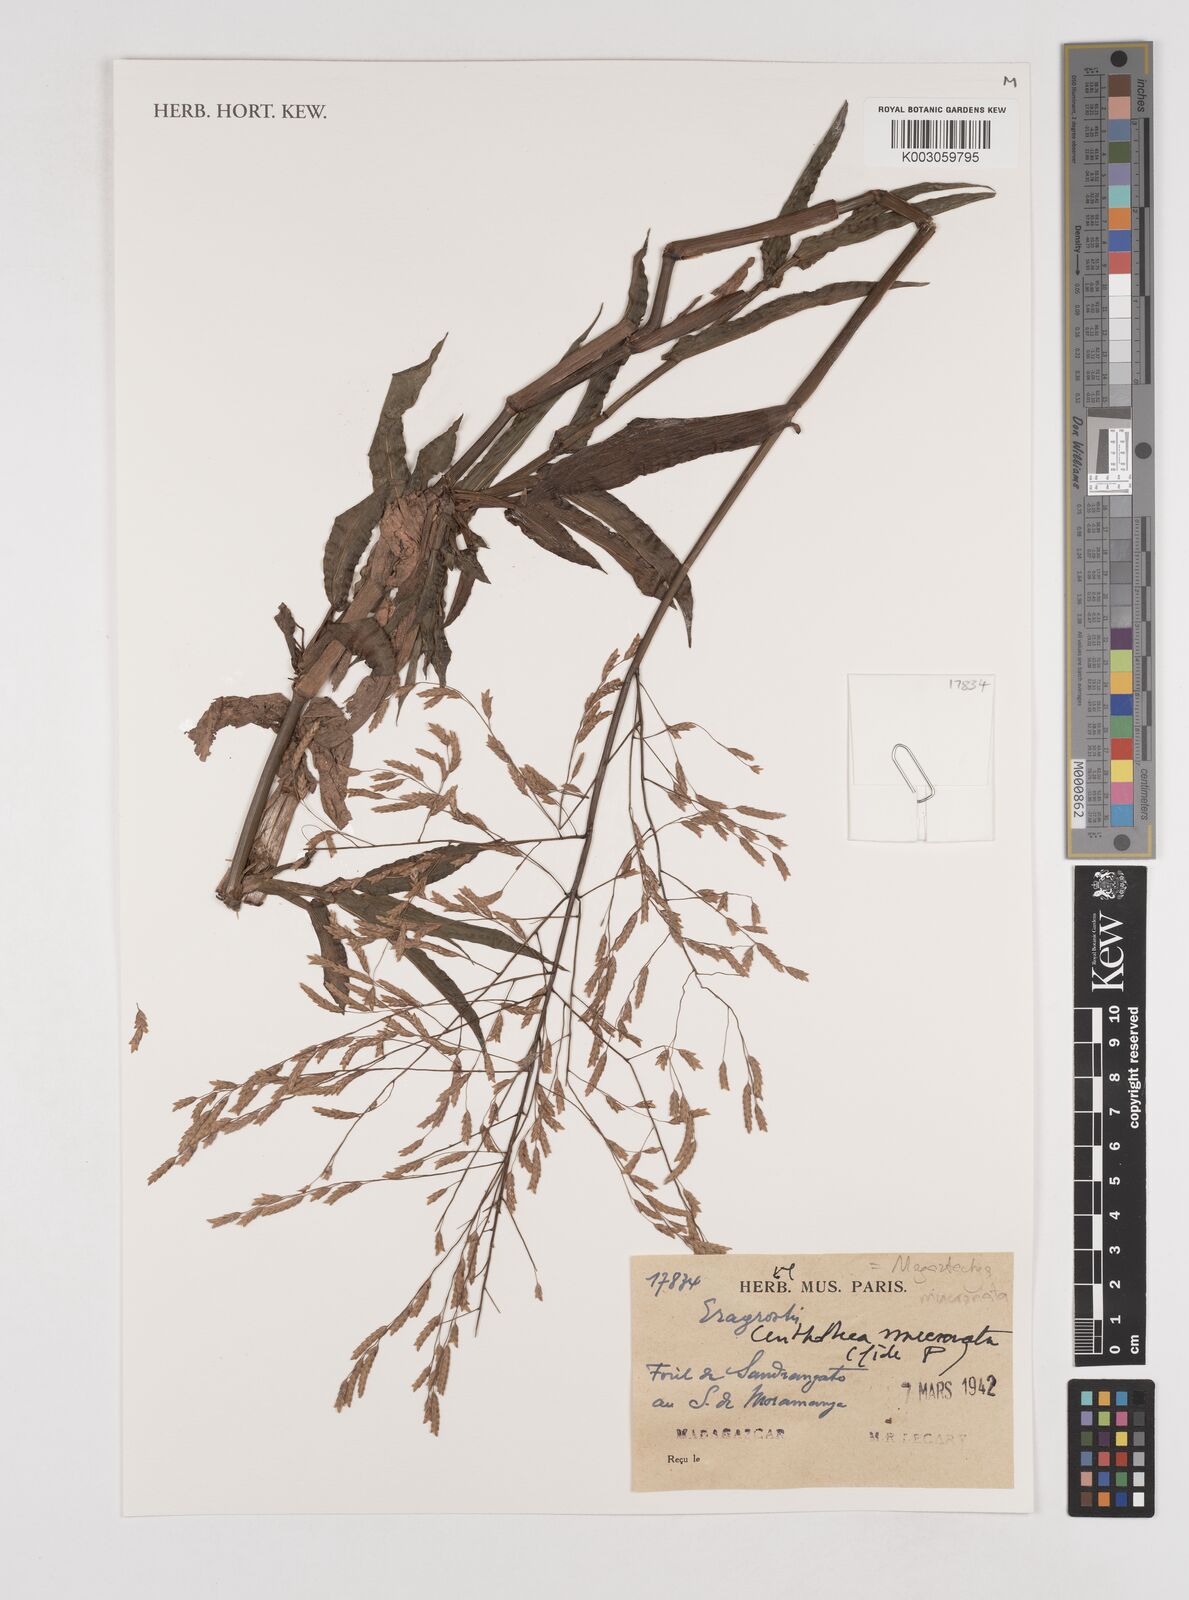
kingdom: Plantae
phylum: Tracheophyta
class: Liliopsida
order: Poales
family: Poaceae
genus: Megastachya
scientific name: Megastachya mucronata
